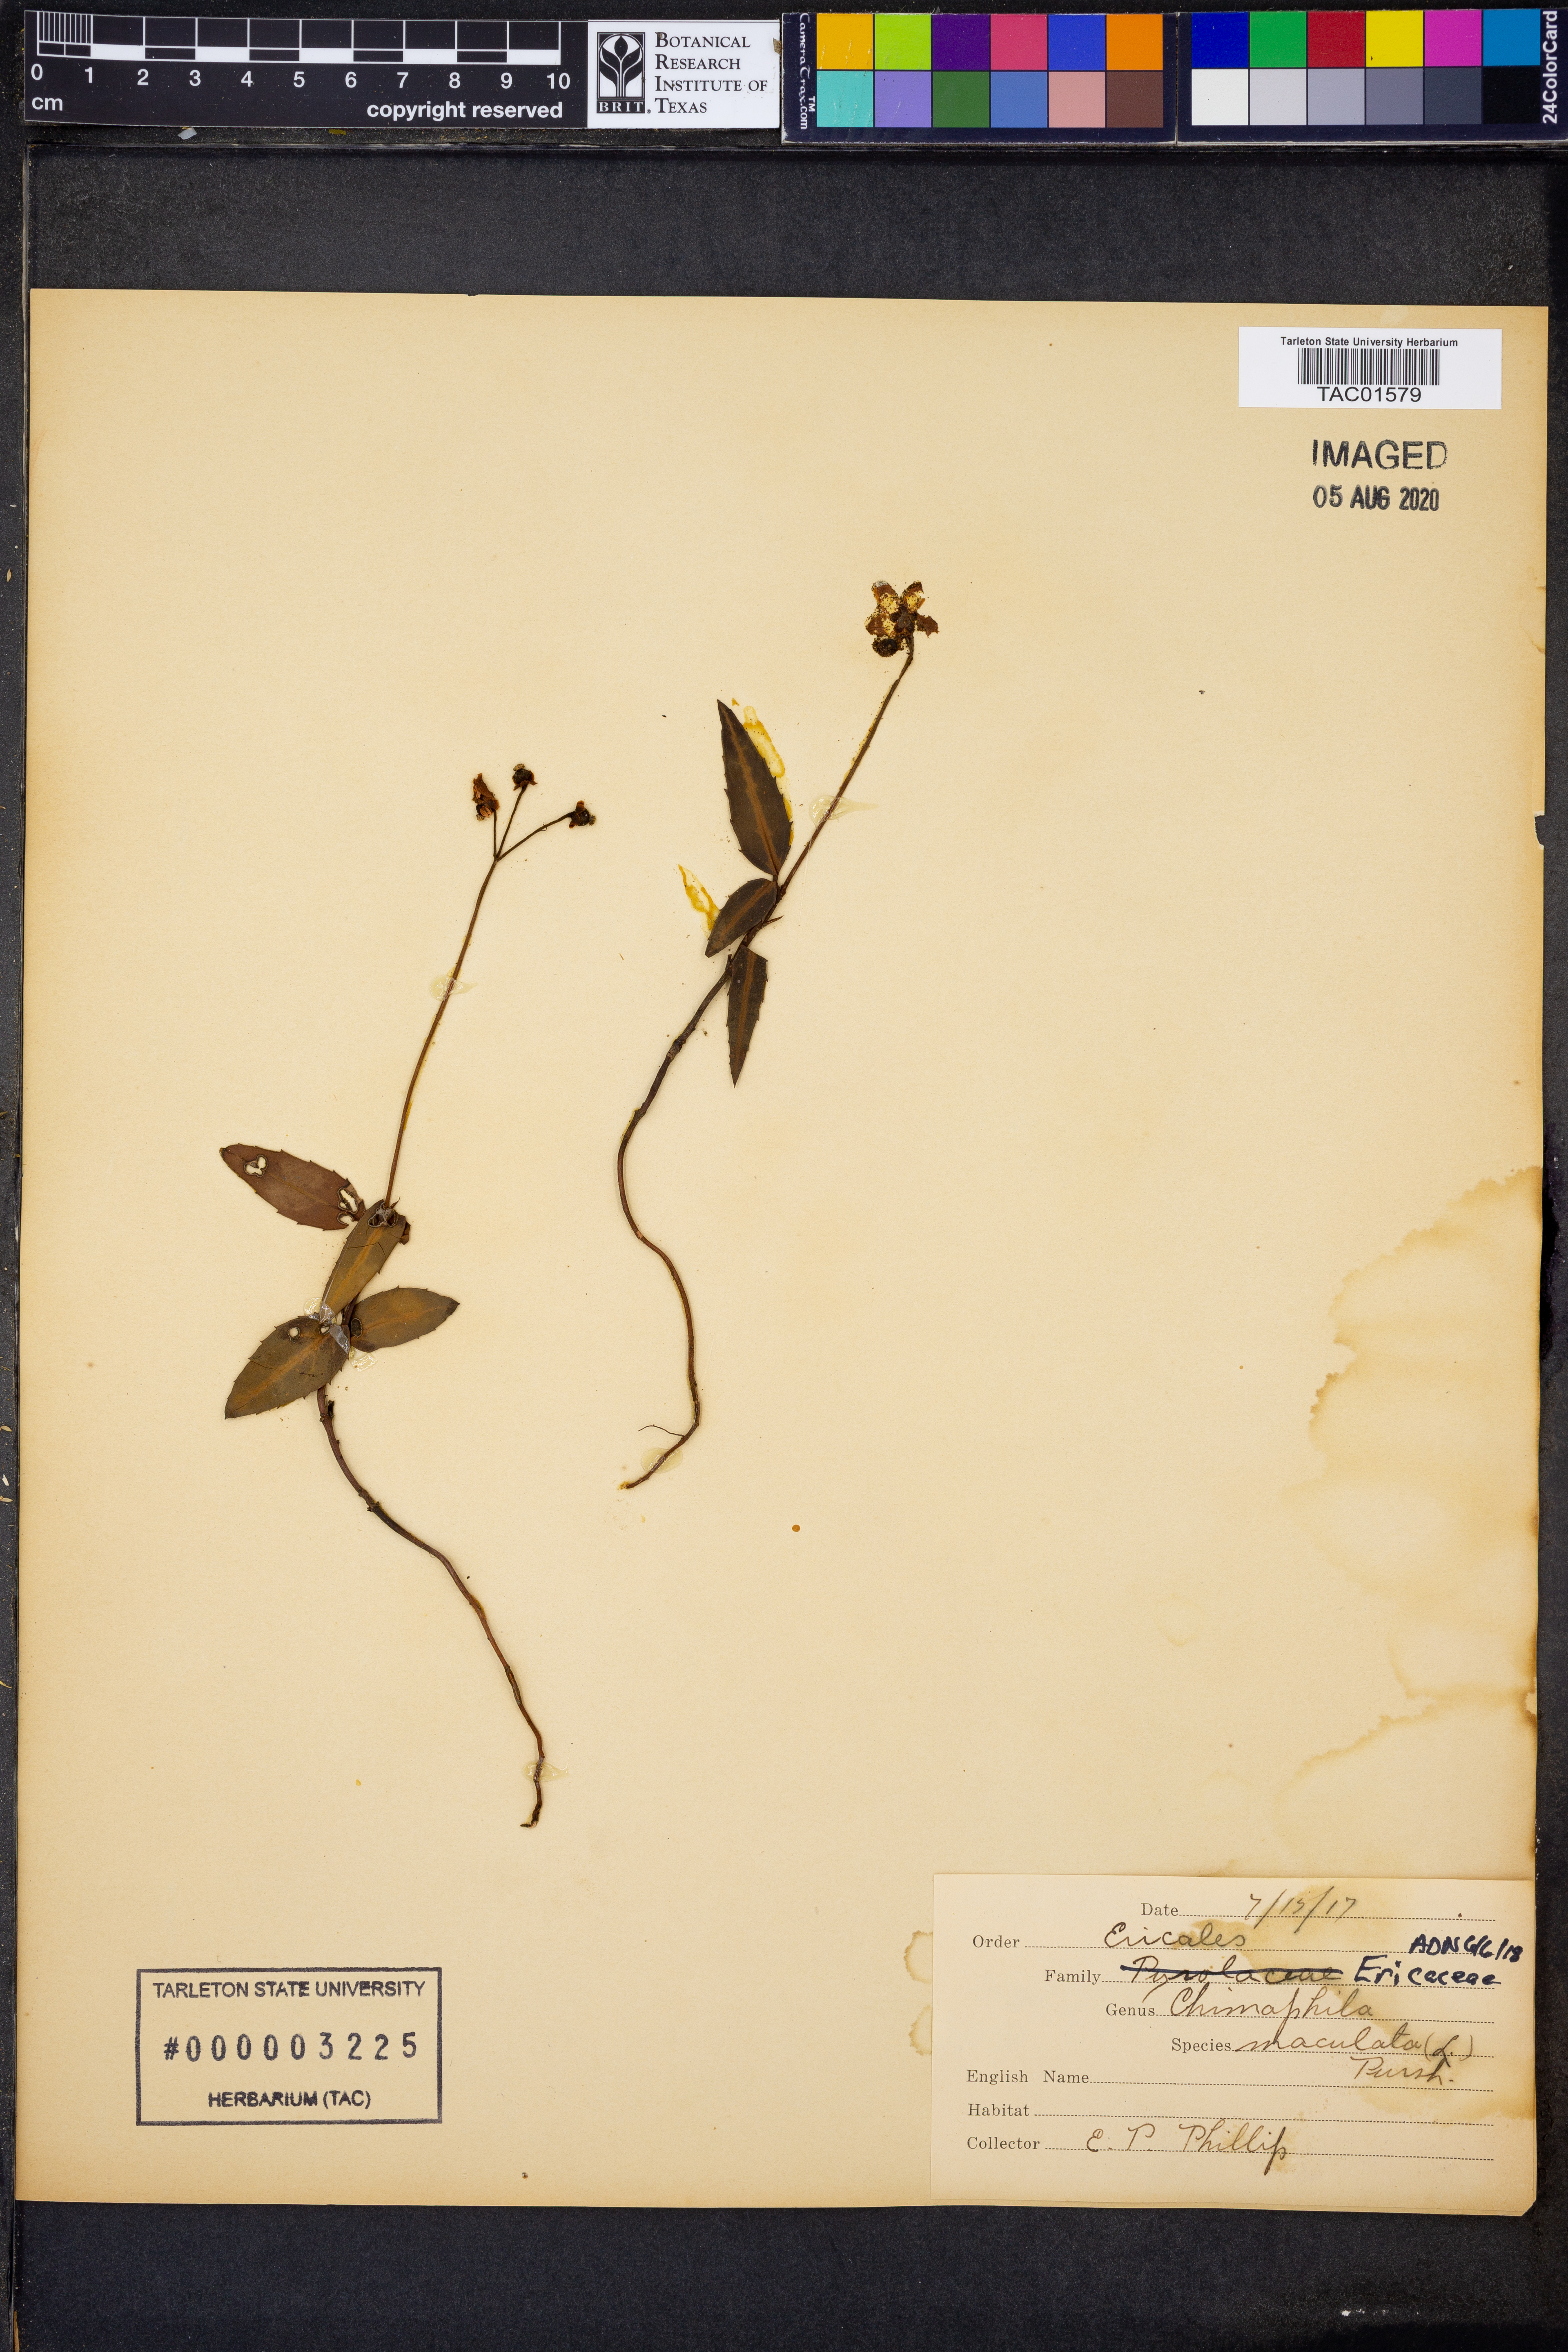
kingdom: Plantae
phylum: Tracheophyta
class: Magnoliopsida
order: Ericales
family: Ericaceae
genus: Chimaphila
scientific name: Chimaphila maculata
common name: Spotted pipsissewa
